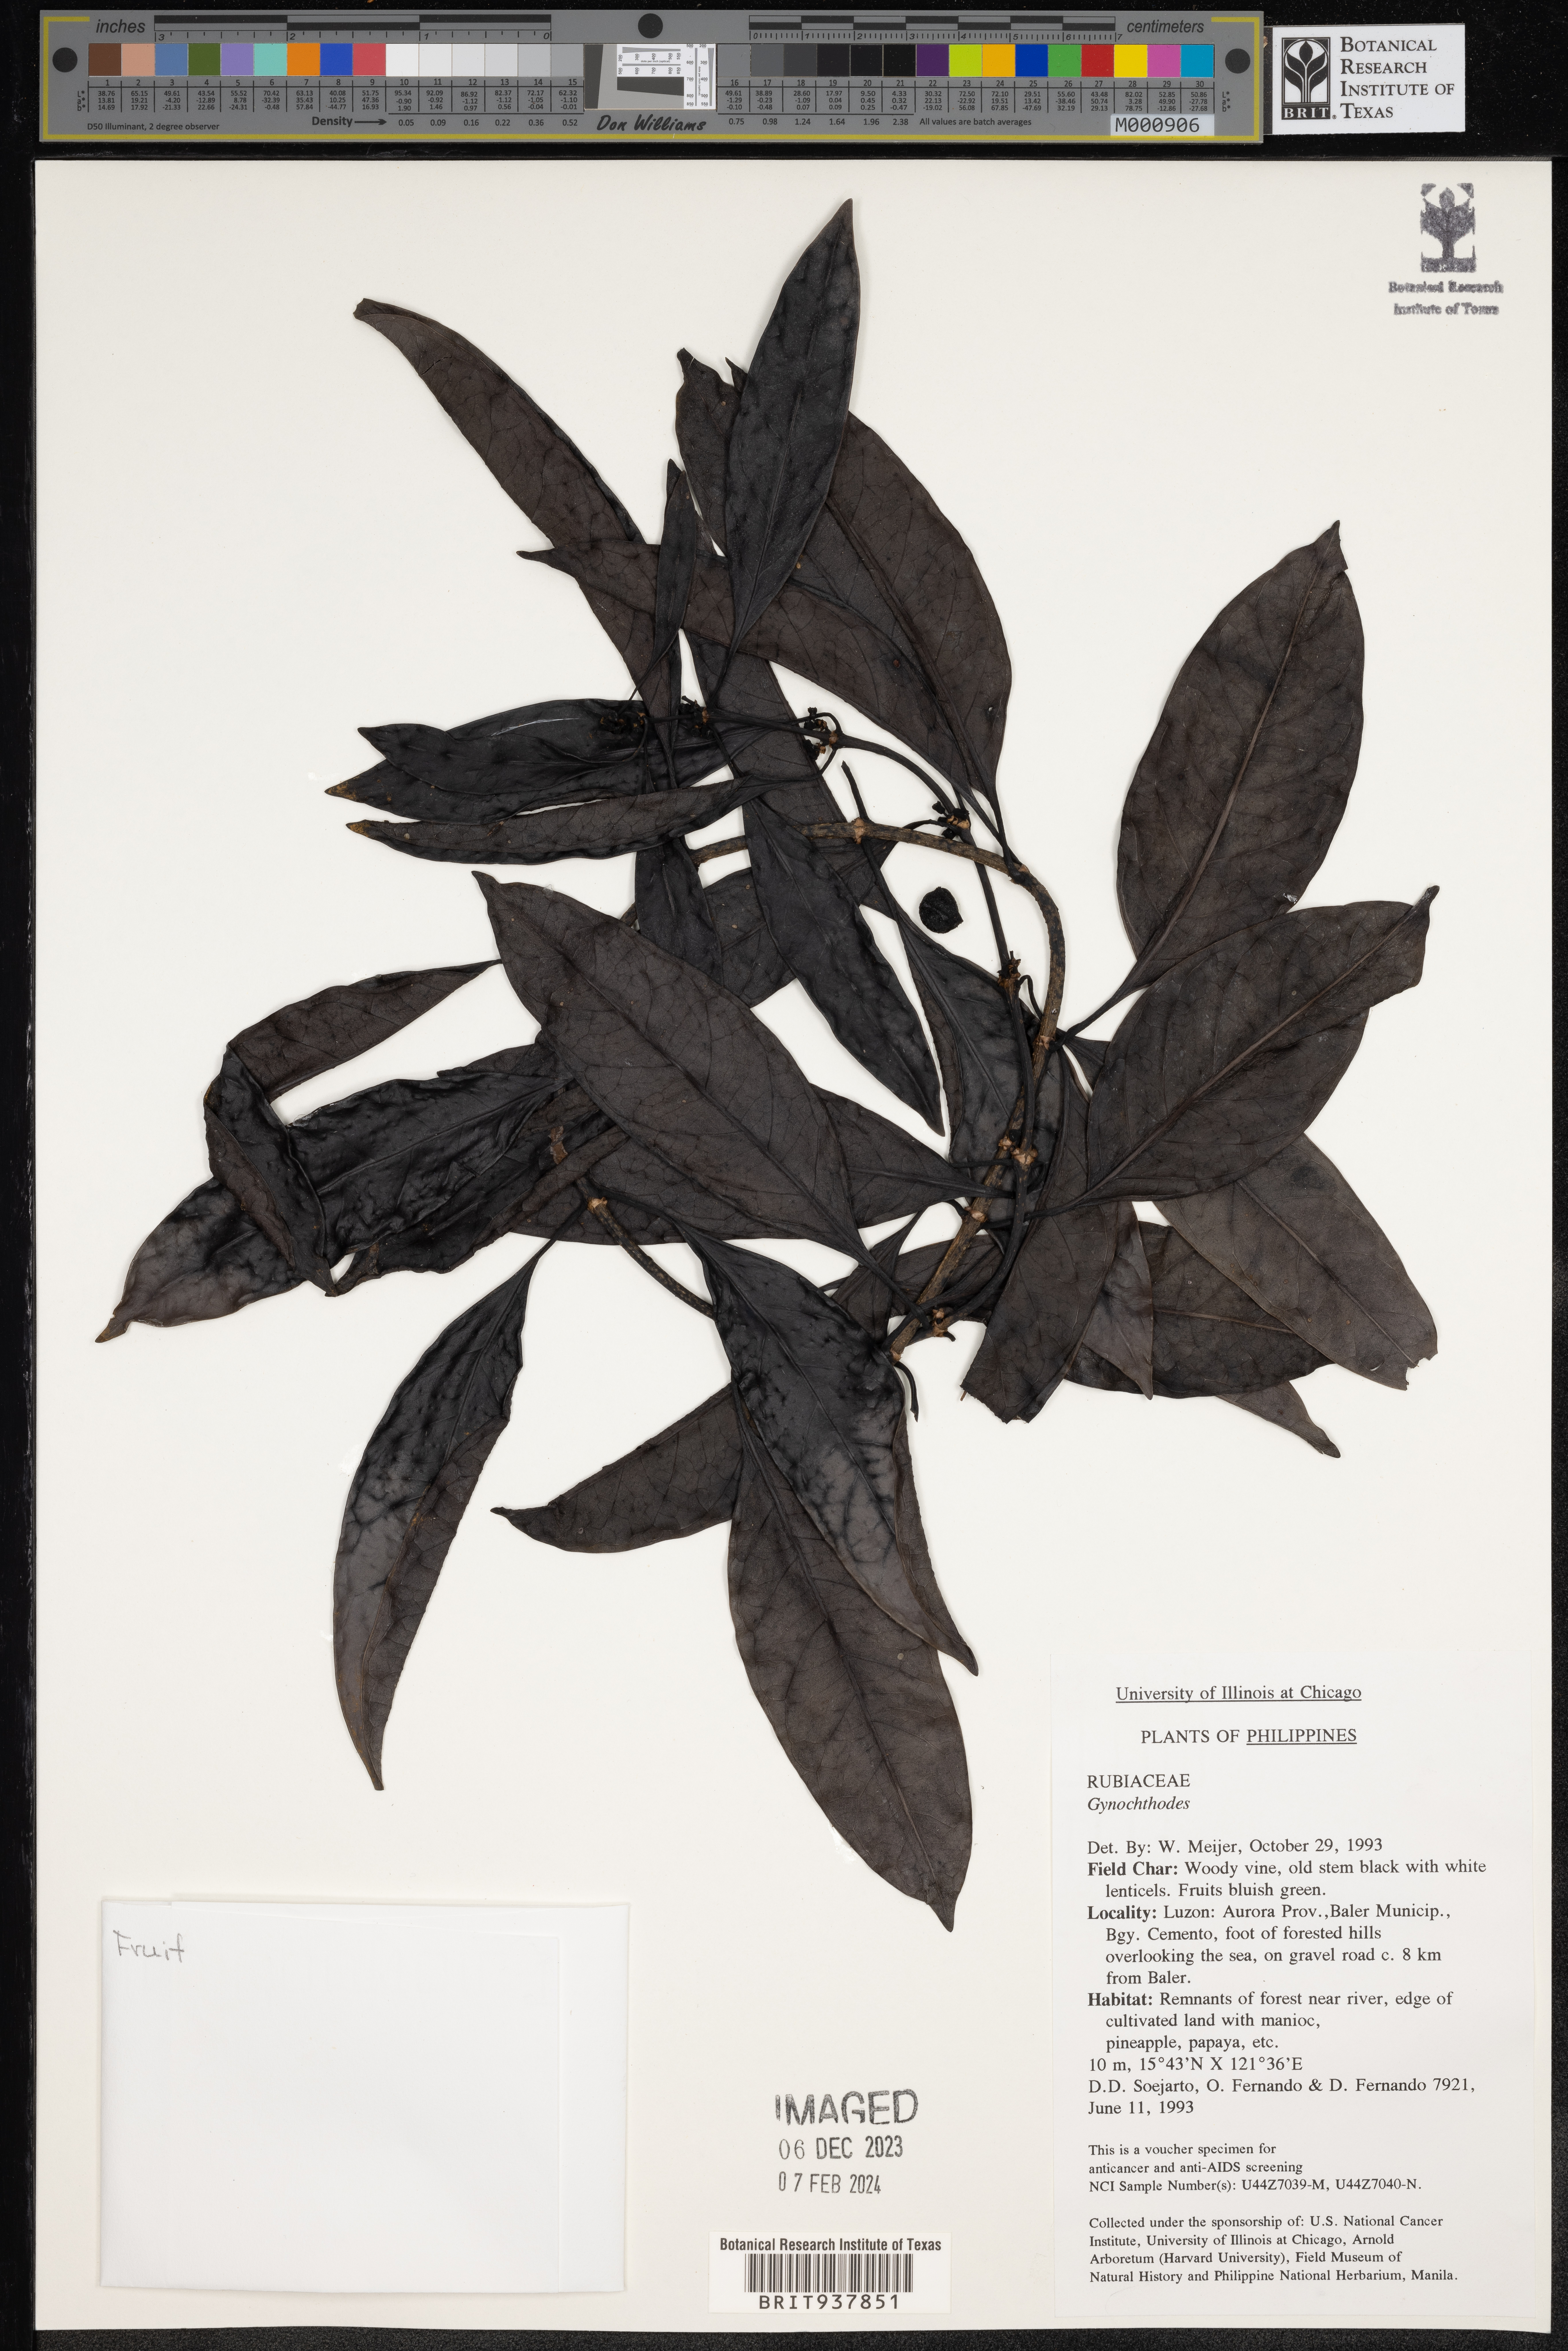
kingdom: Plantae
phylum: Tracheophyta
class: Magnoliopsida
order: Gentianales
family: Rubiaceae
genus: Gynochthodes
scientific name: Gynochthodes
